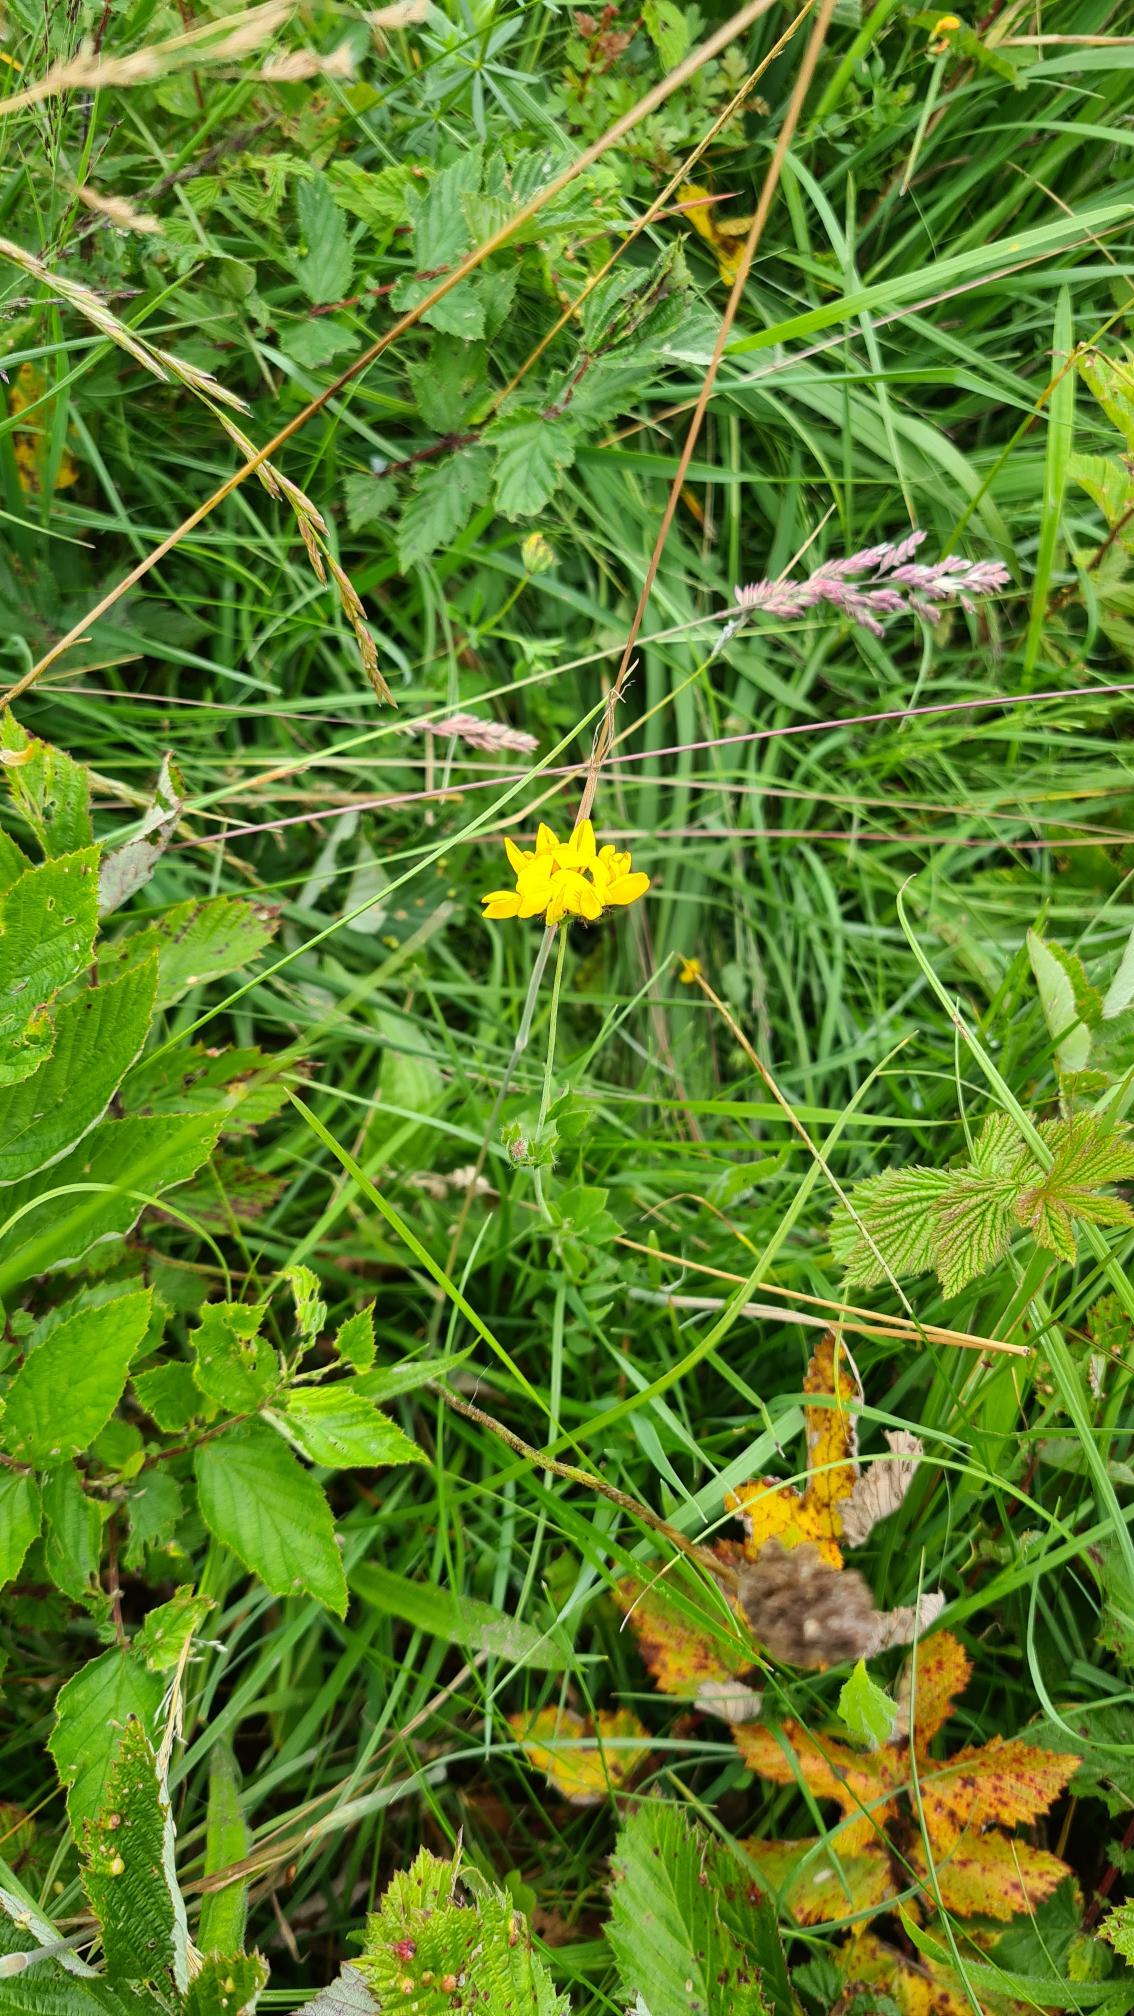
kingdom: Plantae
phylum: Tracheophyta
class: Magnoliopsida
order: Fabales
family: Fabaceae
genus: Lotus
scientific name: Lotus pedunculatus
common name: Sump-kællingetand
